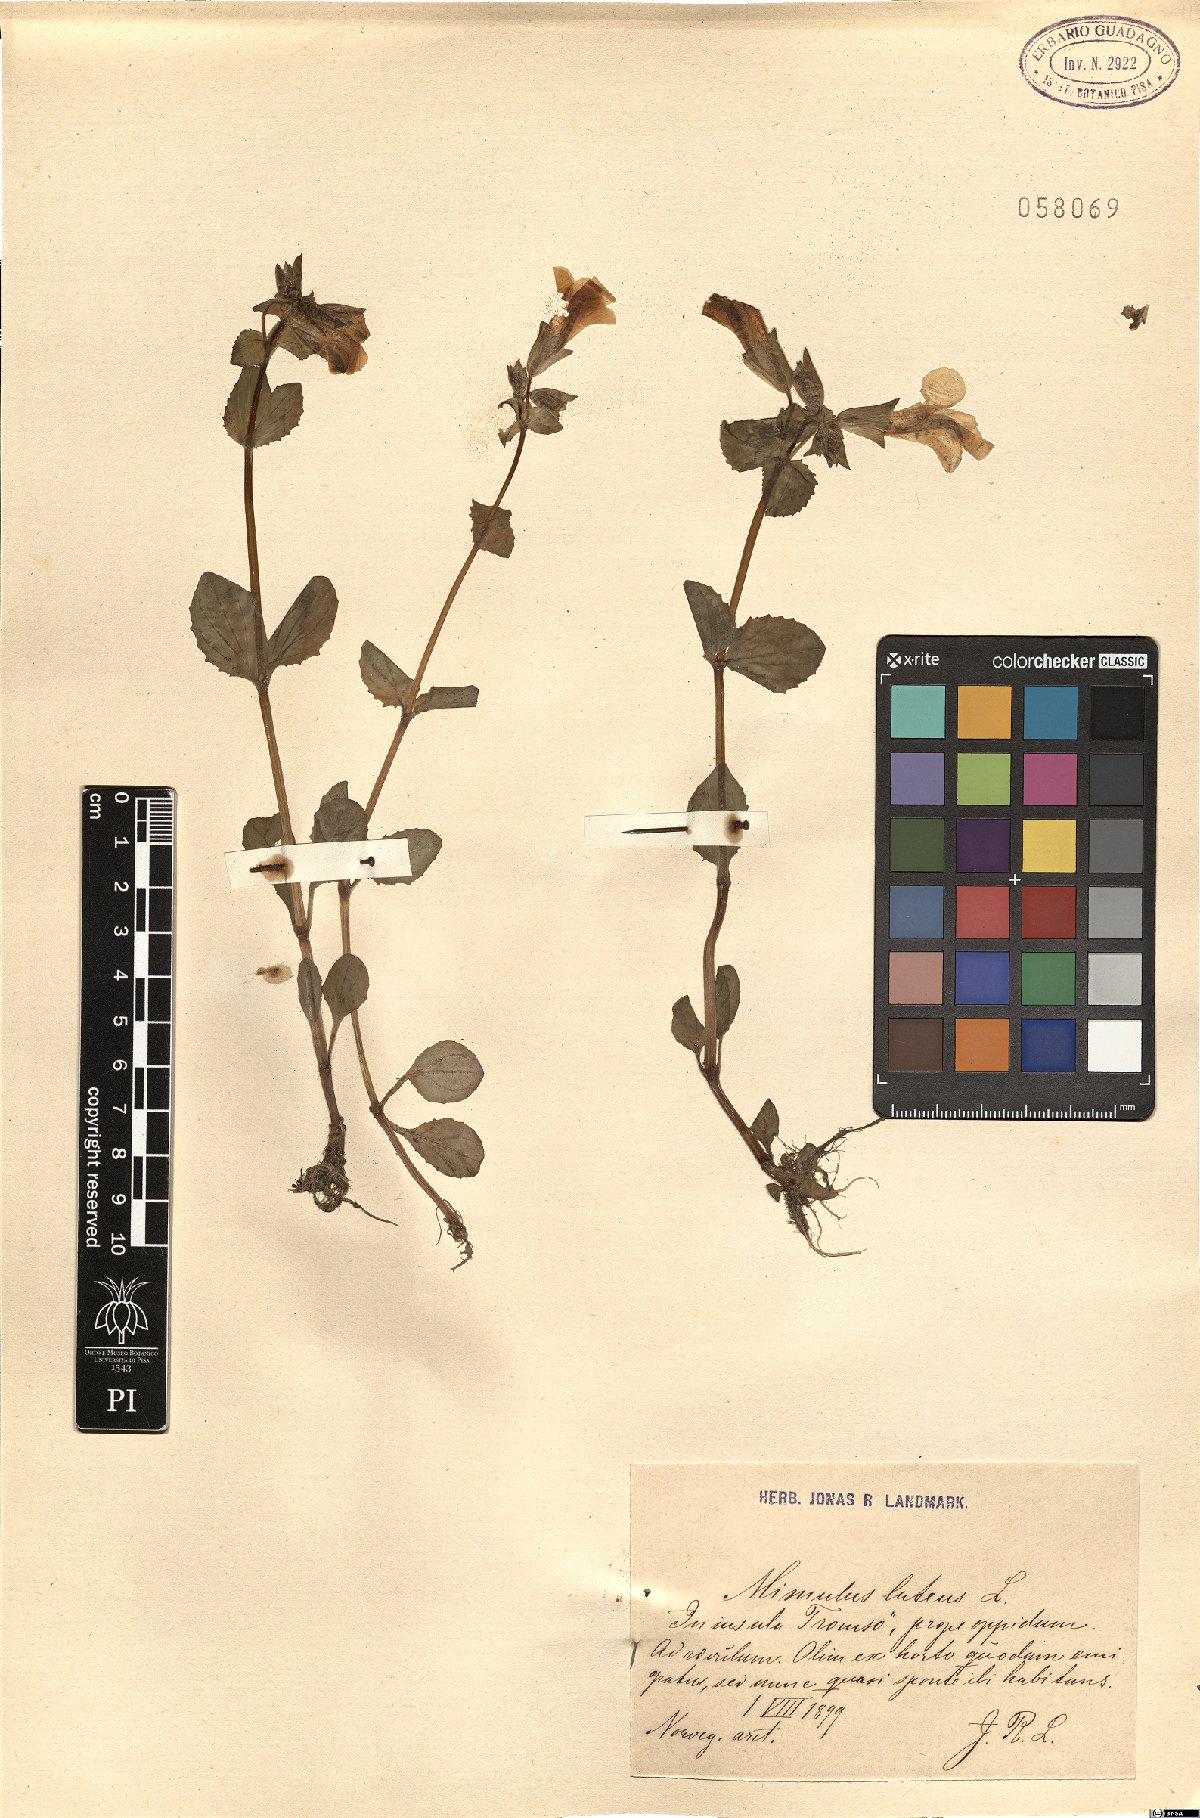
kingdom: Plantae
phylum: Tracheophyta
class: Magnoliopsida
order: Lamiales
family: Phrymaceae
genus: Erythranthe
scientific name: Erythranthe lutea
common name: Yellow monkey-flower
